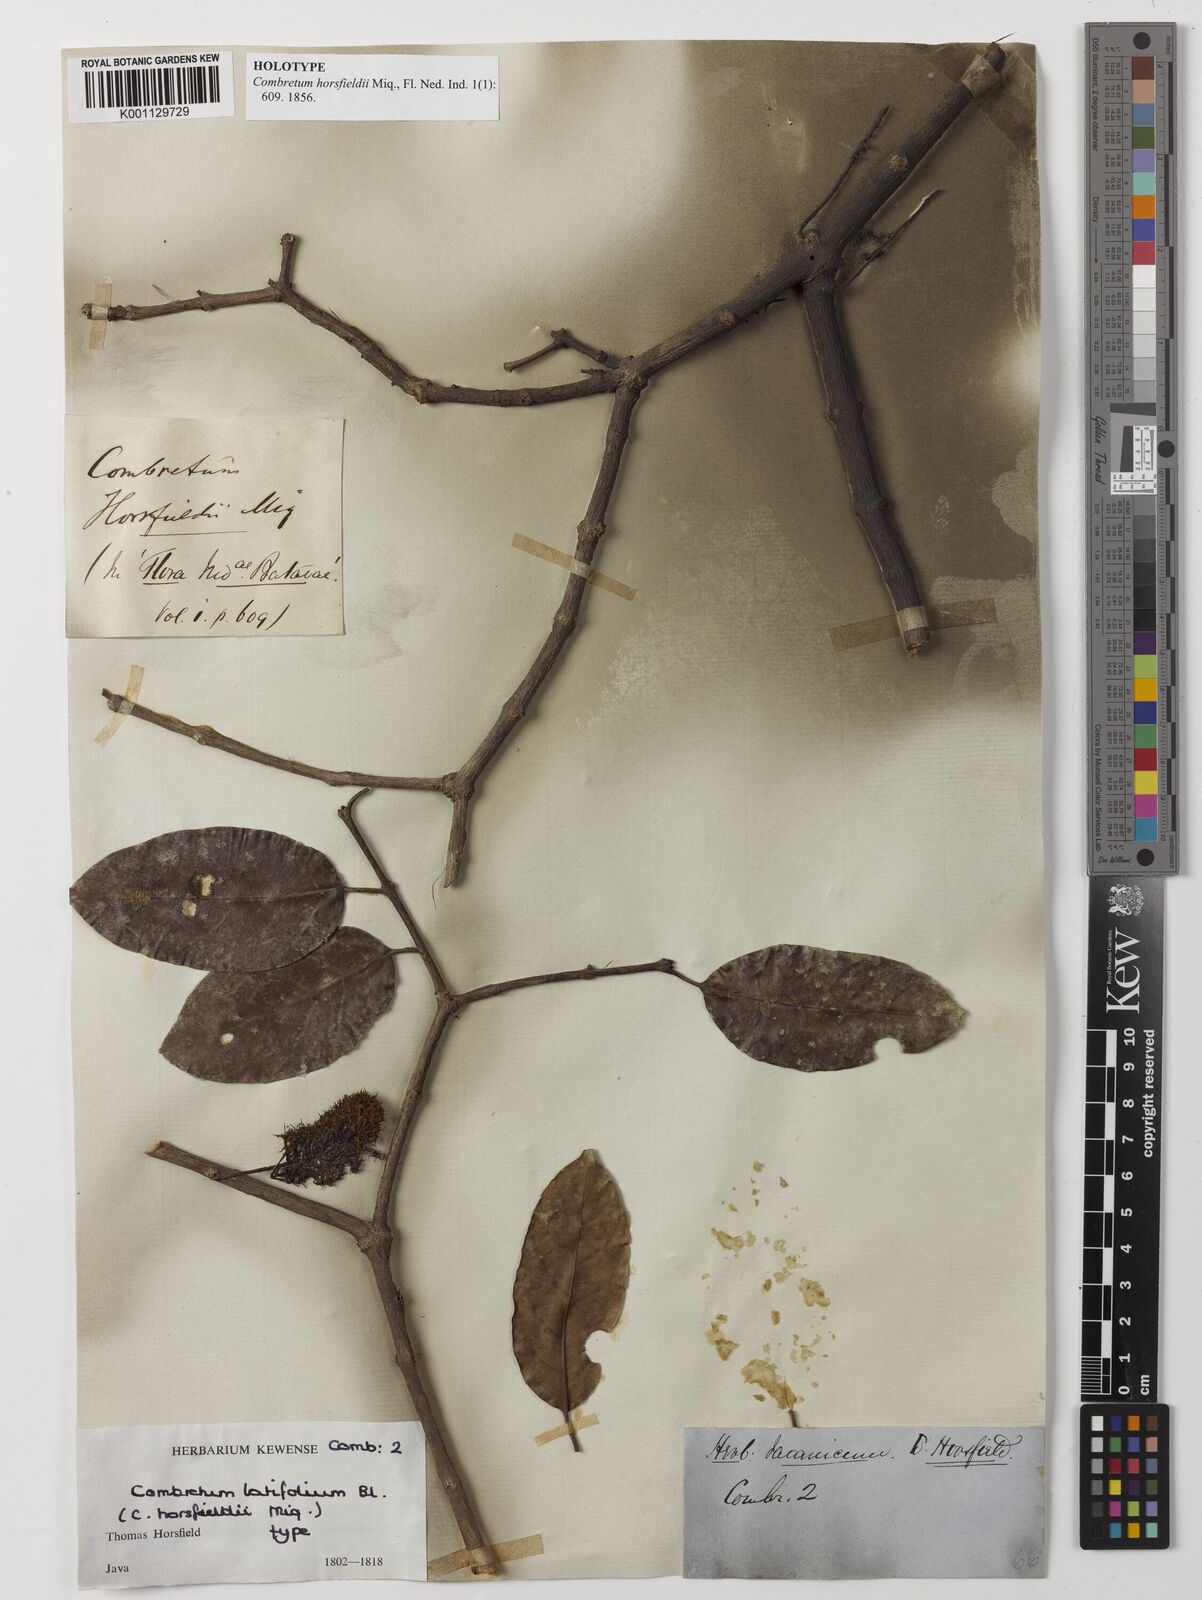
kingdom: Plantae
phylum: Tracheophyta
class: Magnoliopsida
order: Myrtales
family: Combretaceae
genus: Combretum
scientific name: Combretum latifolium
